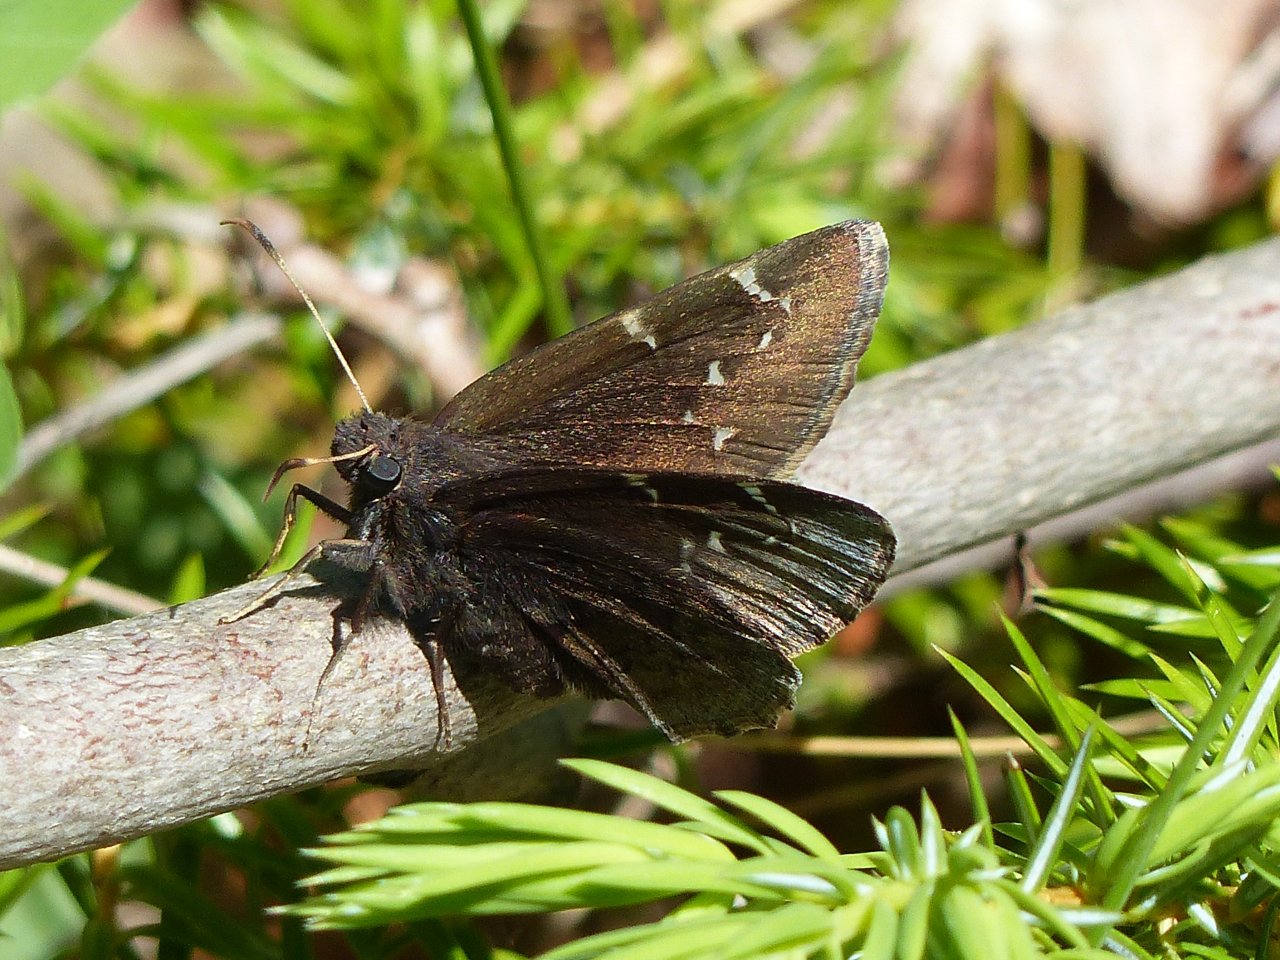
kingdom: Animalia
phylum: Arthropoda
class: Insecta
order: Lepidoptera
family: Hesperiidae
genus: Autochton
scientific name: Autochton
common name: Northern Cloudywing
